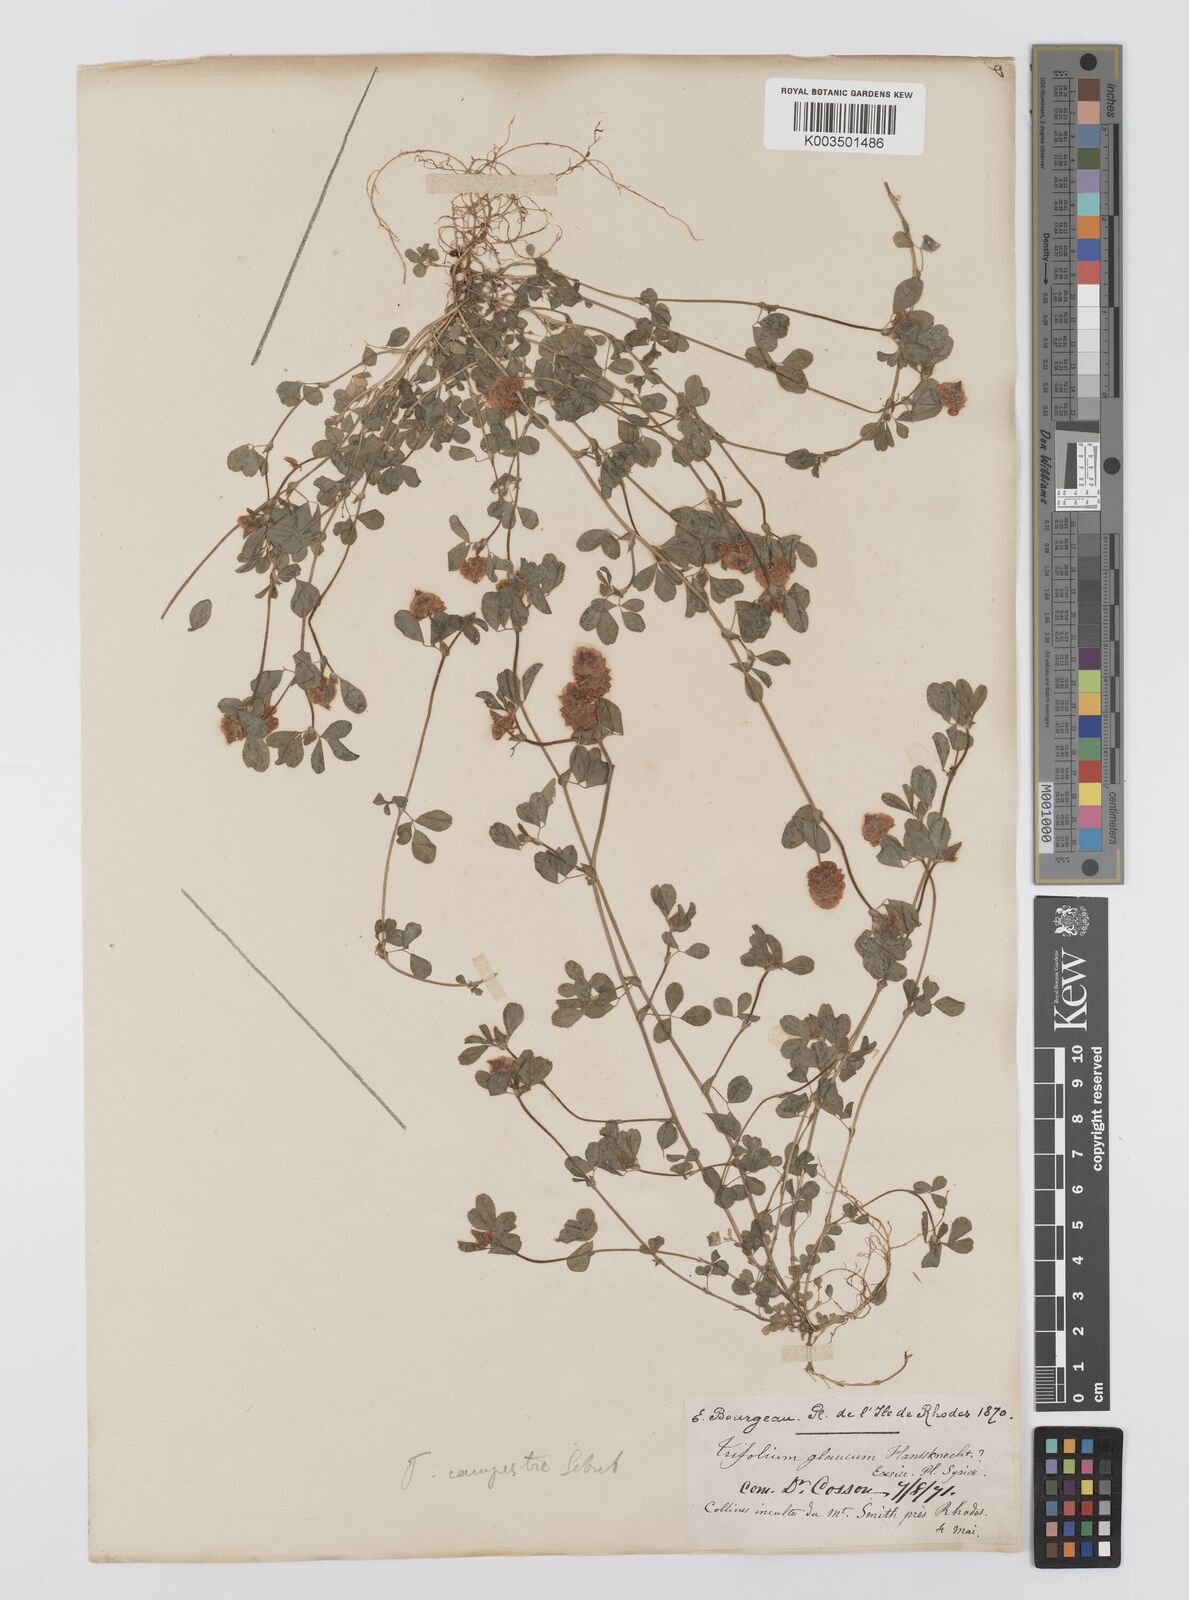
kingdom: Plantae
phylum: Tracheophyta
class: Magnoliopsida
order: Fabales
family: Fabaceae
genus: Trifolium
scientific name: Trifolium campestre
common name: Field clover
